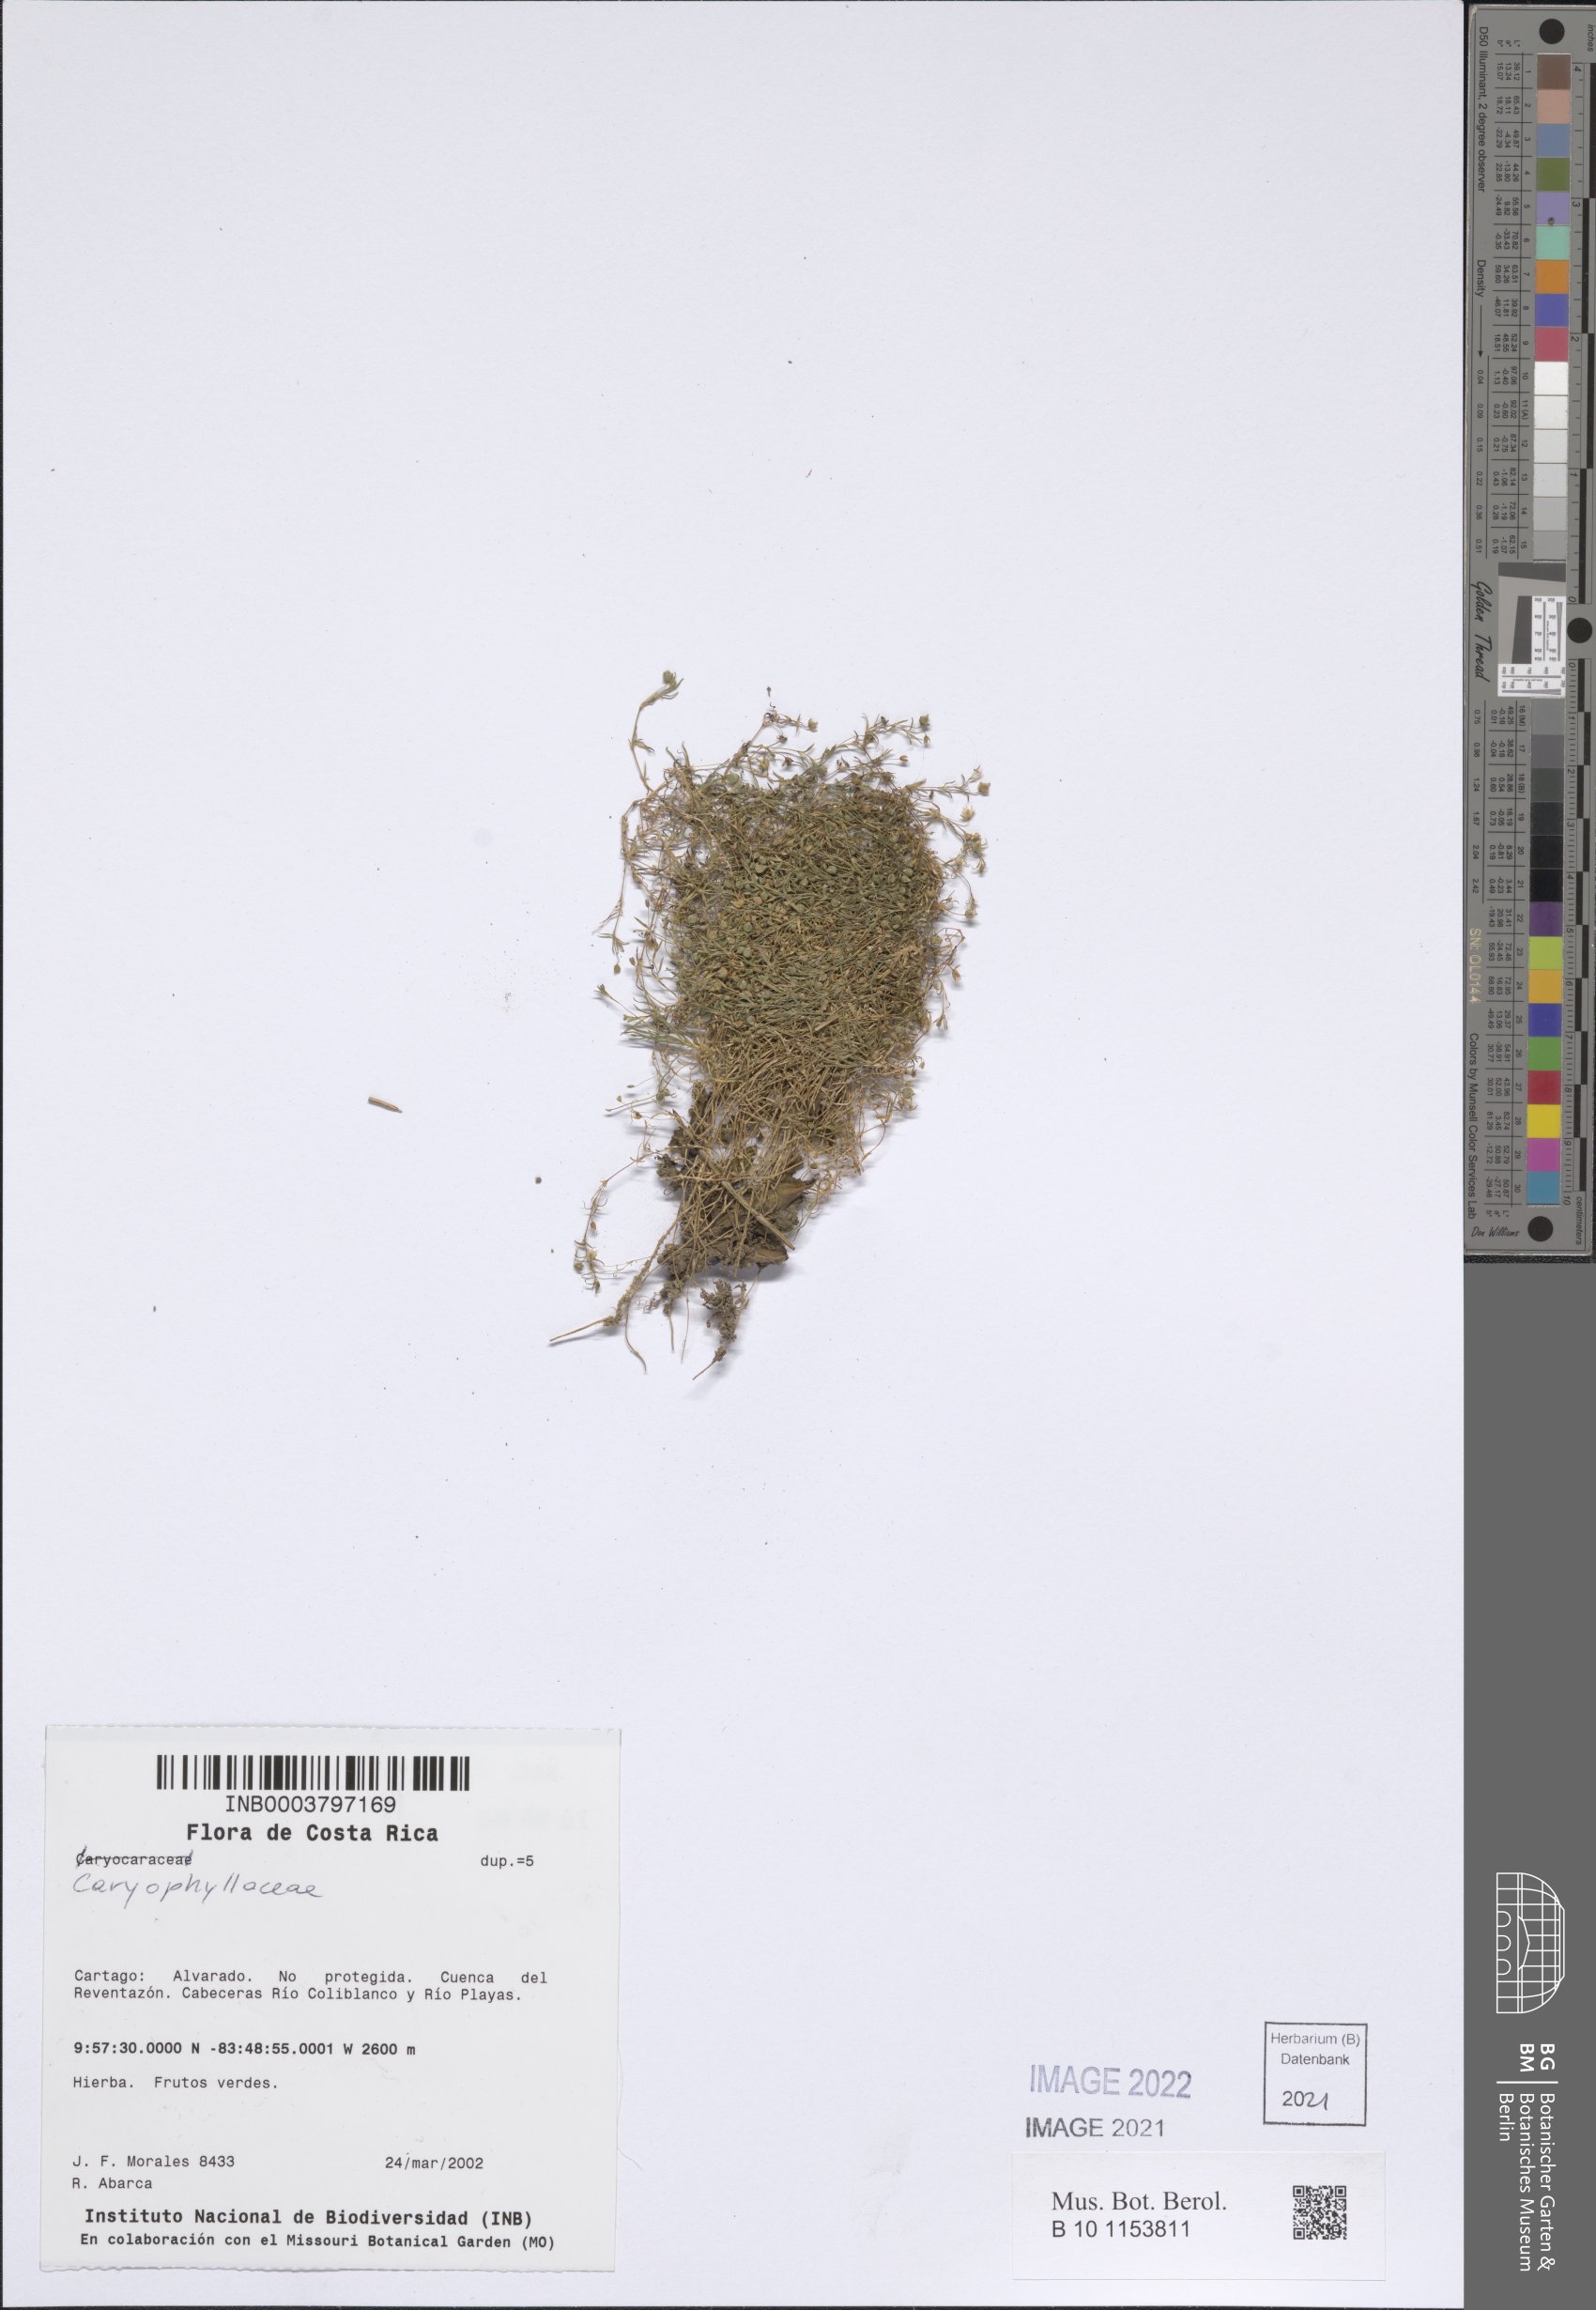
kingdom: Plantae
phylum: Tracheophyta
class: Magnoliopsida
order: Caryophyllales
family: Caryophyllaceae
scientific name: Caryophyllaceae
